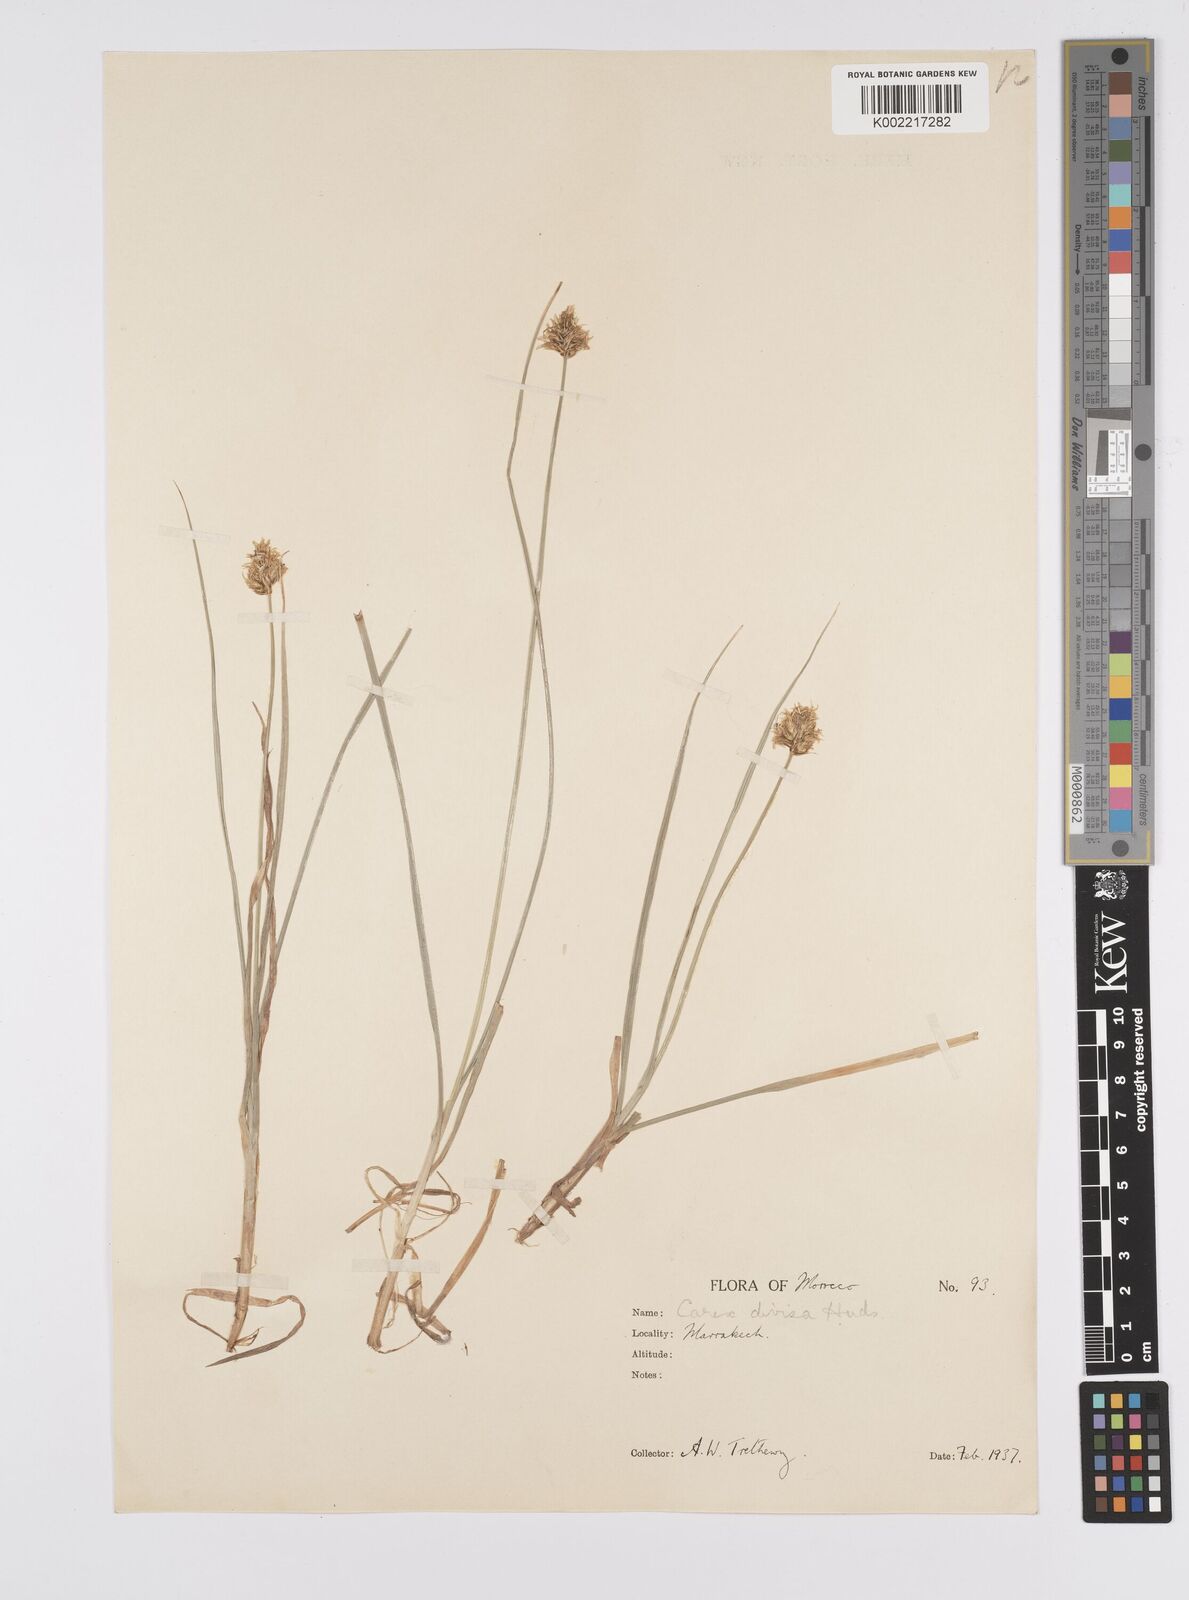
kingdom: Plantae
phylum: Tracheophyta
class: Liliopsida
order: Poales
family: Cyperaceae
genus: Carex
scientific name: Carex divisa
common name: Divided sedge
